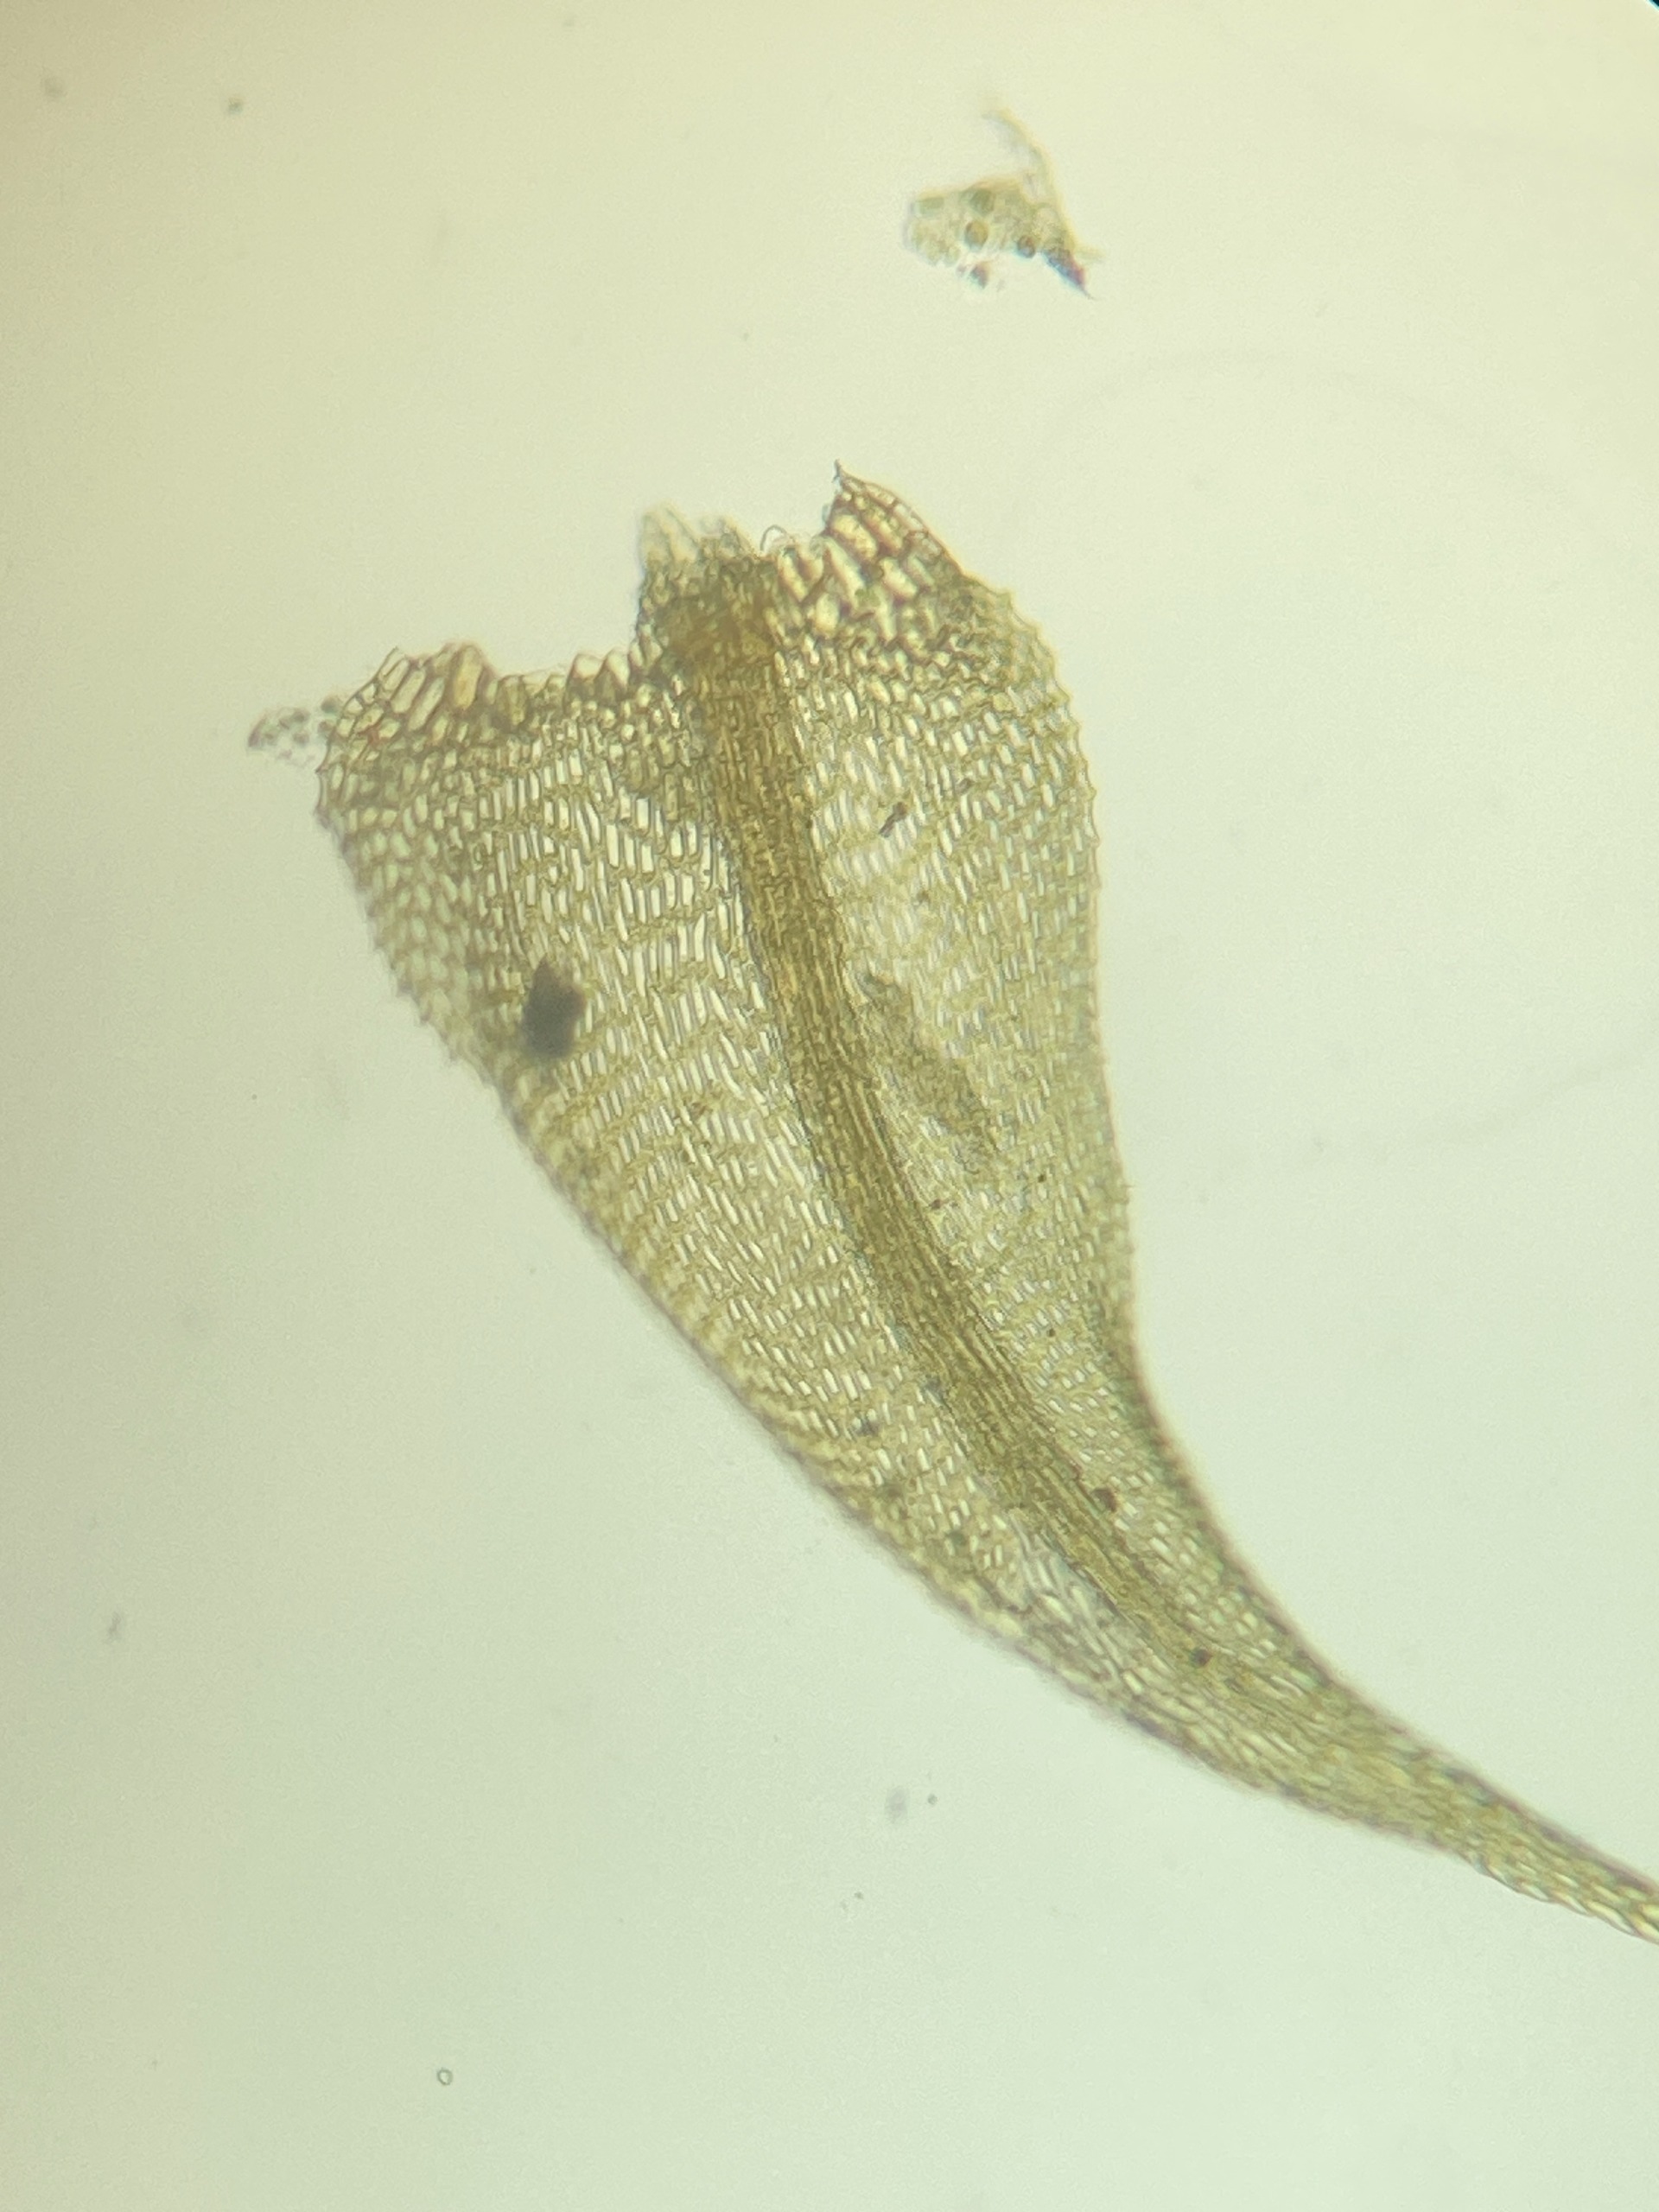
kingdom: Plantae
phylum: Bryophyta
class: Bryopsida
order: Hypnales
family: Amblystegiaceae
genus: Cratoneuron
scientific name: Cratoneuron filicinum
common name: Grøn eremitmos
